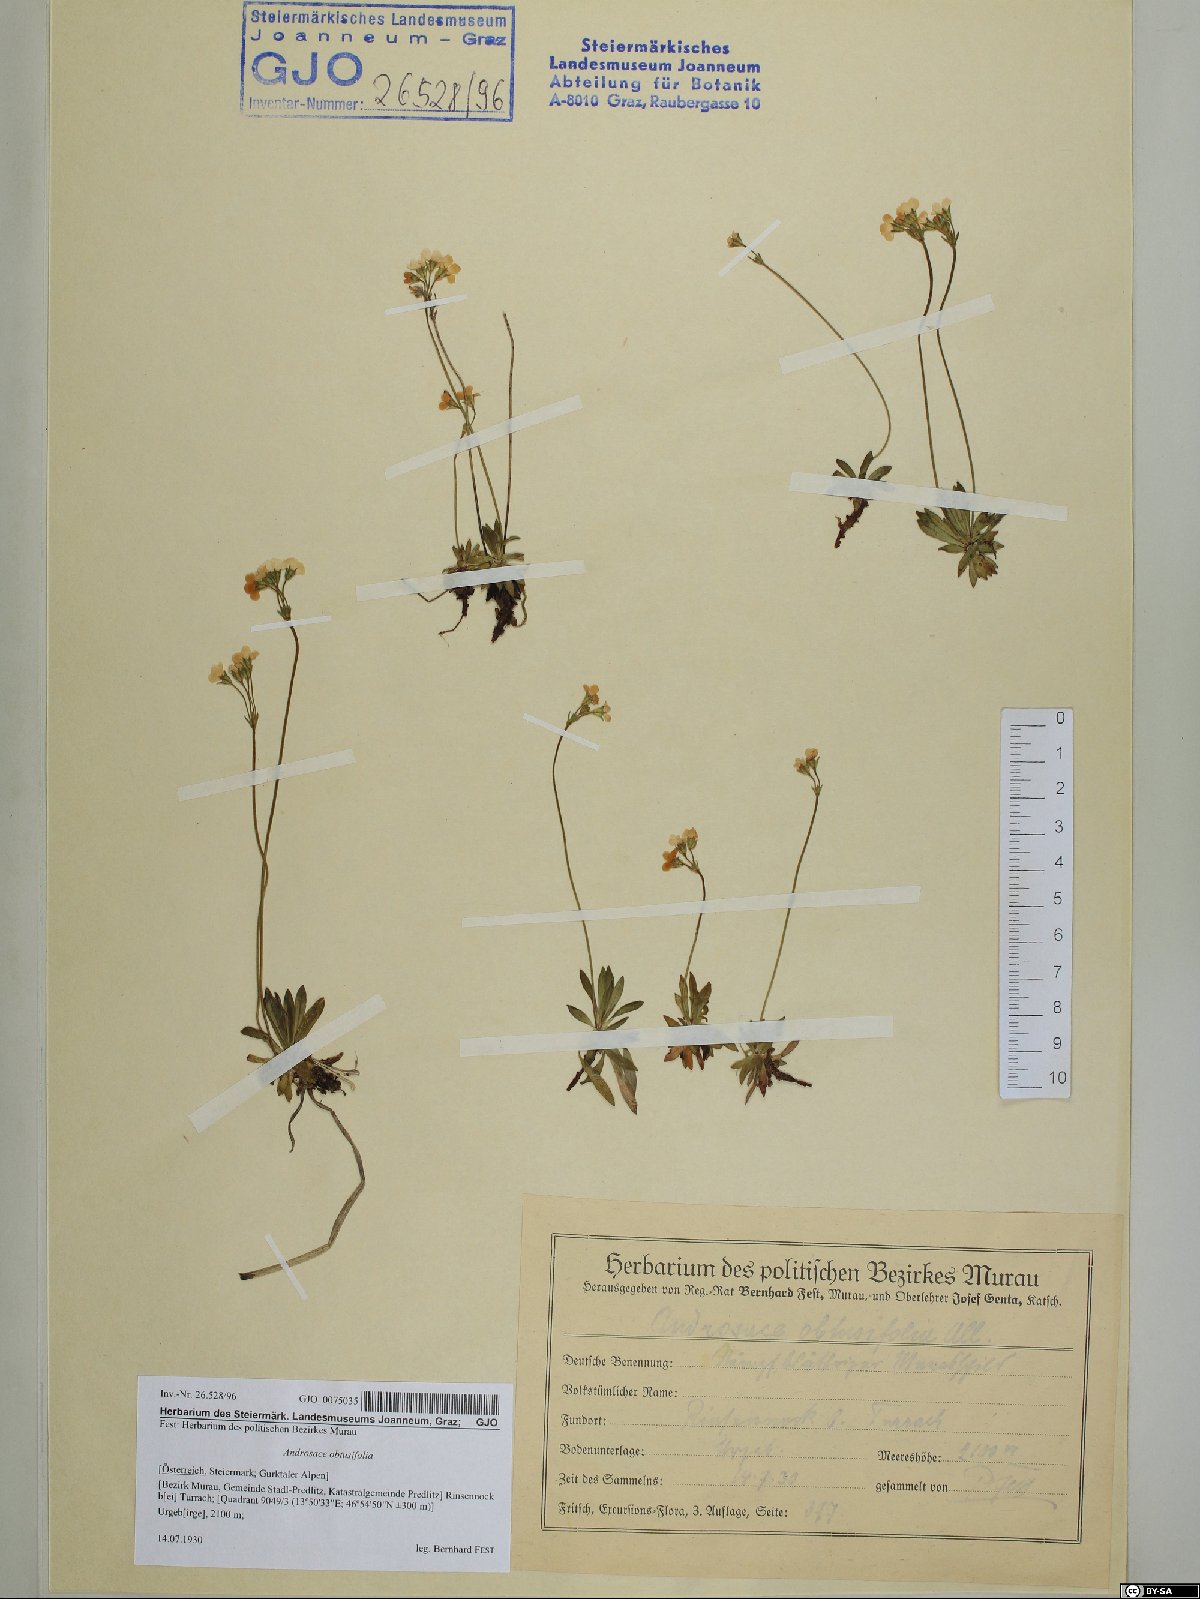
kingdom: Plantae
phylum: Tracheophyta
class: Magnoliopsida
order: Ericales
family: Primulaceae
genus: Androsace
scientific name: Androsace obtusifolia
